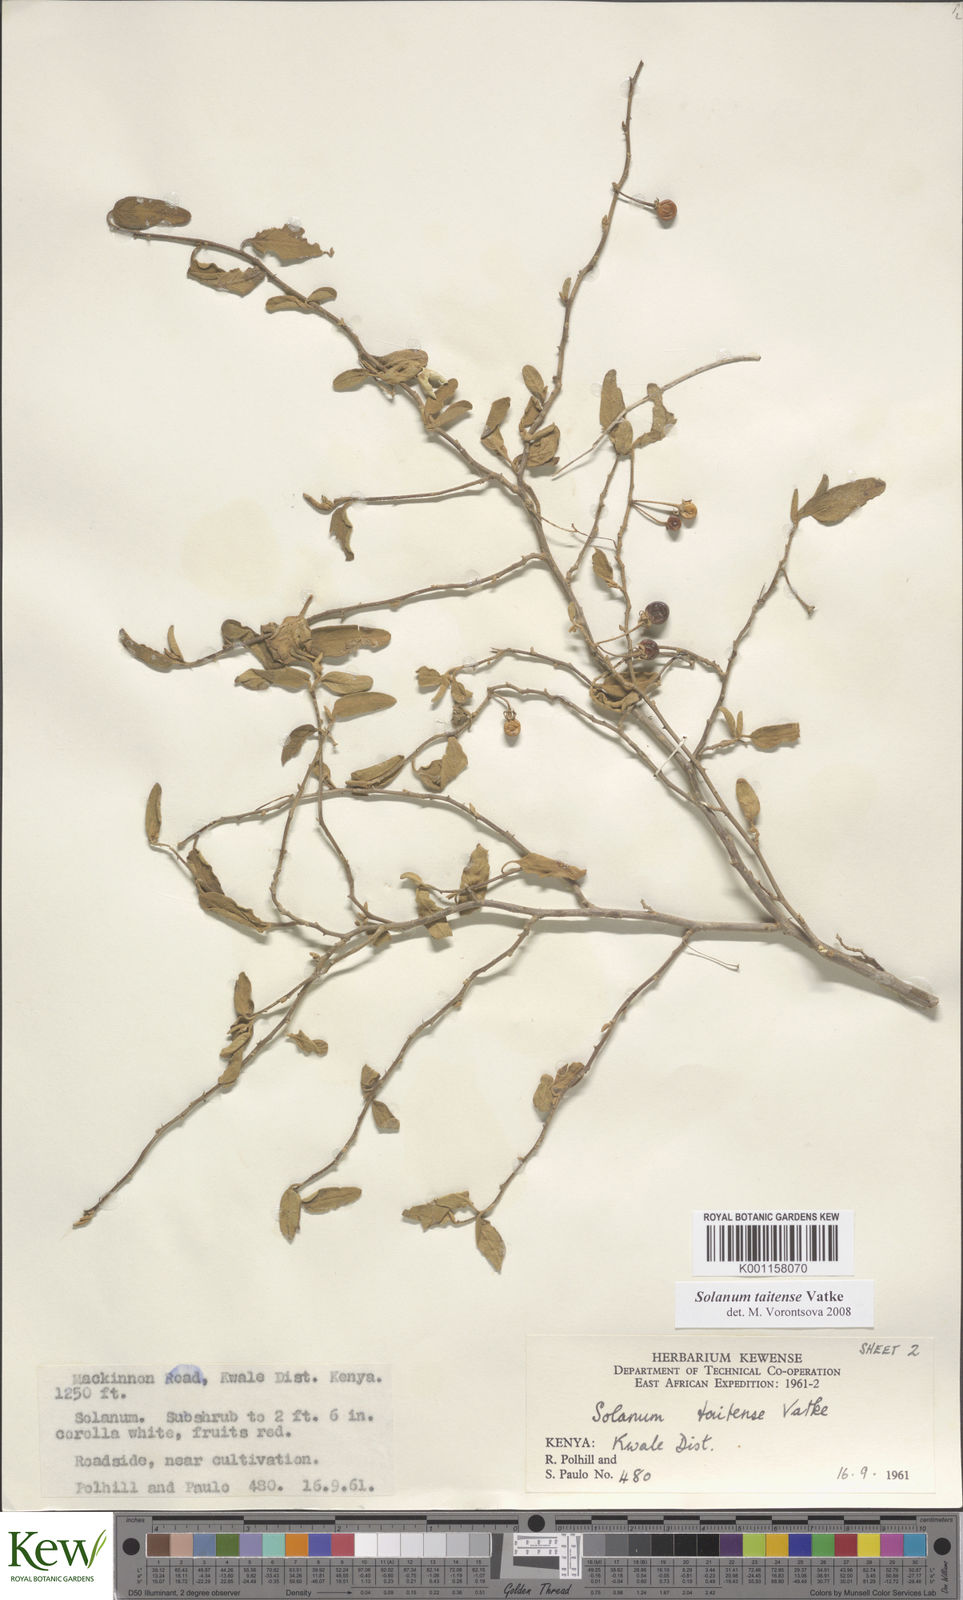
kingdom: Plantae
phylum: Tracheophyta
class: Magnoliopsida
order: Solanales
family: Solanaceae
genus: Solanum
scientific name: Solanum taitense
